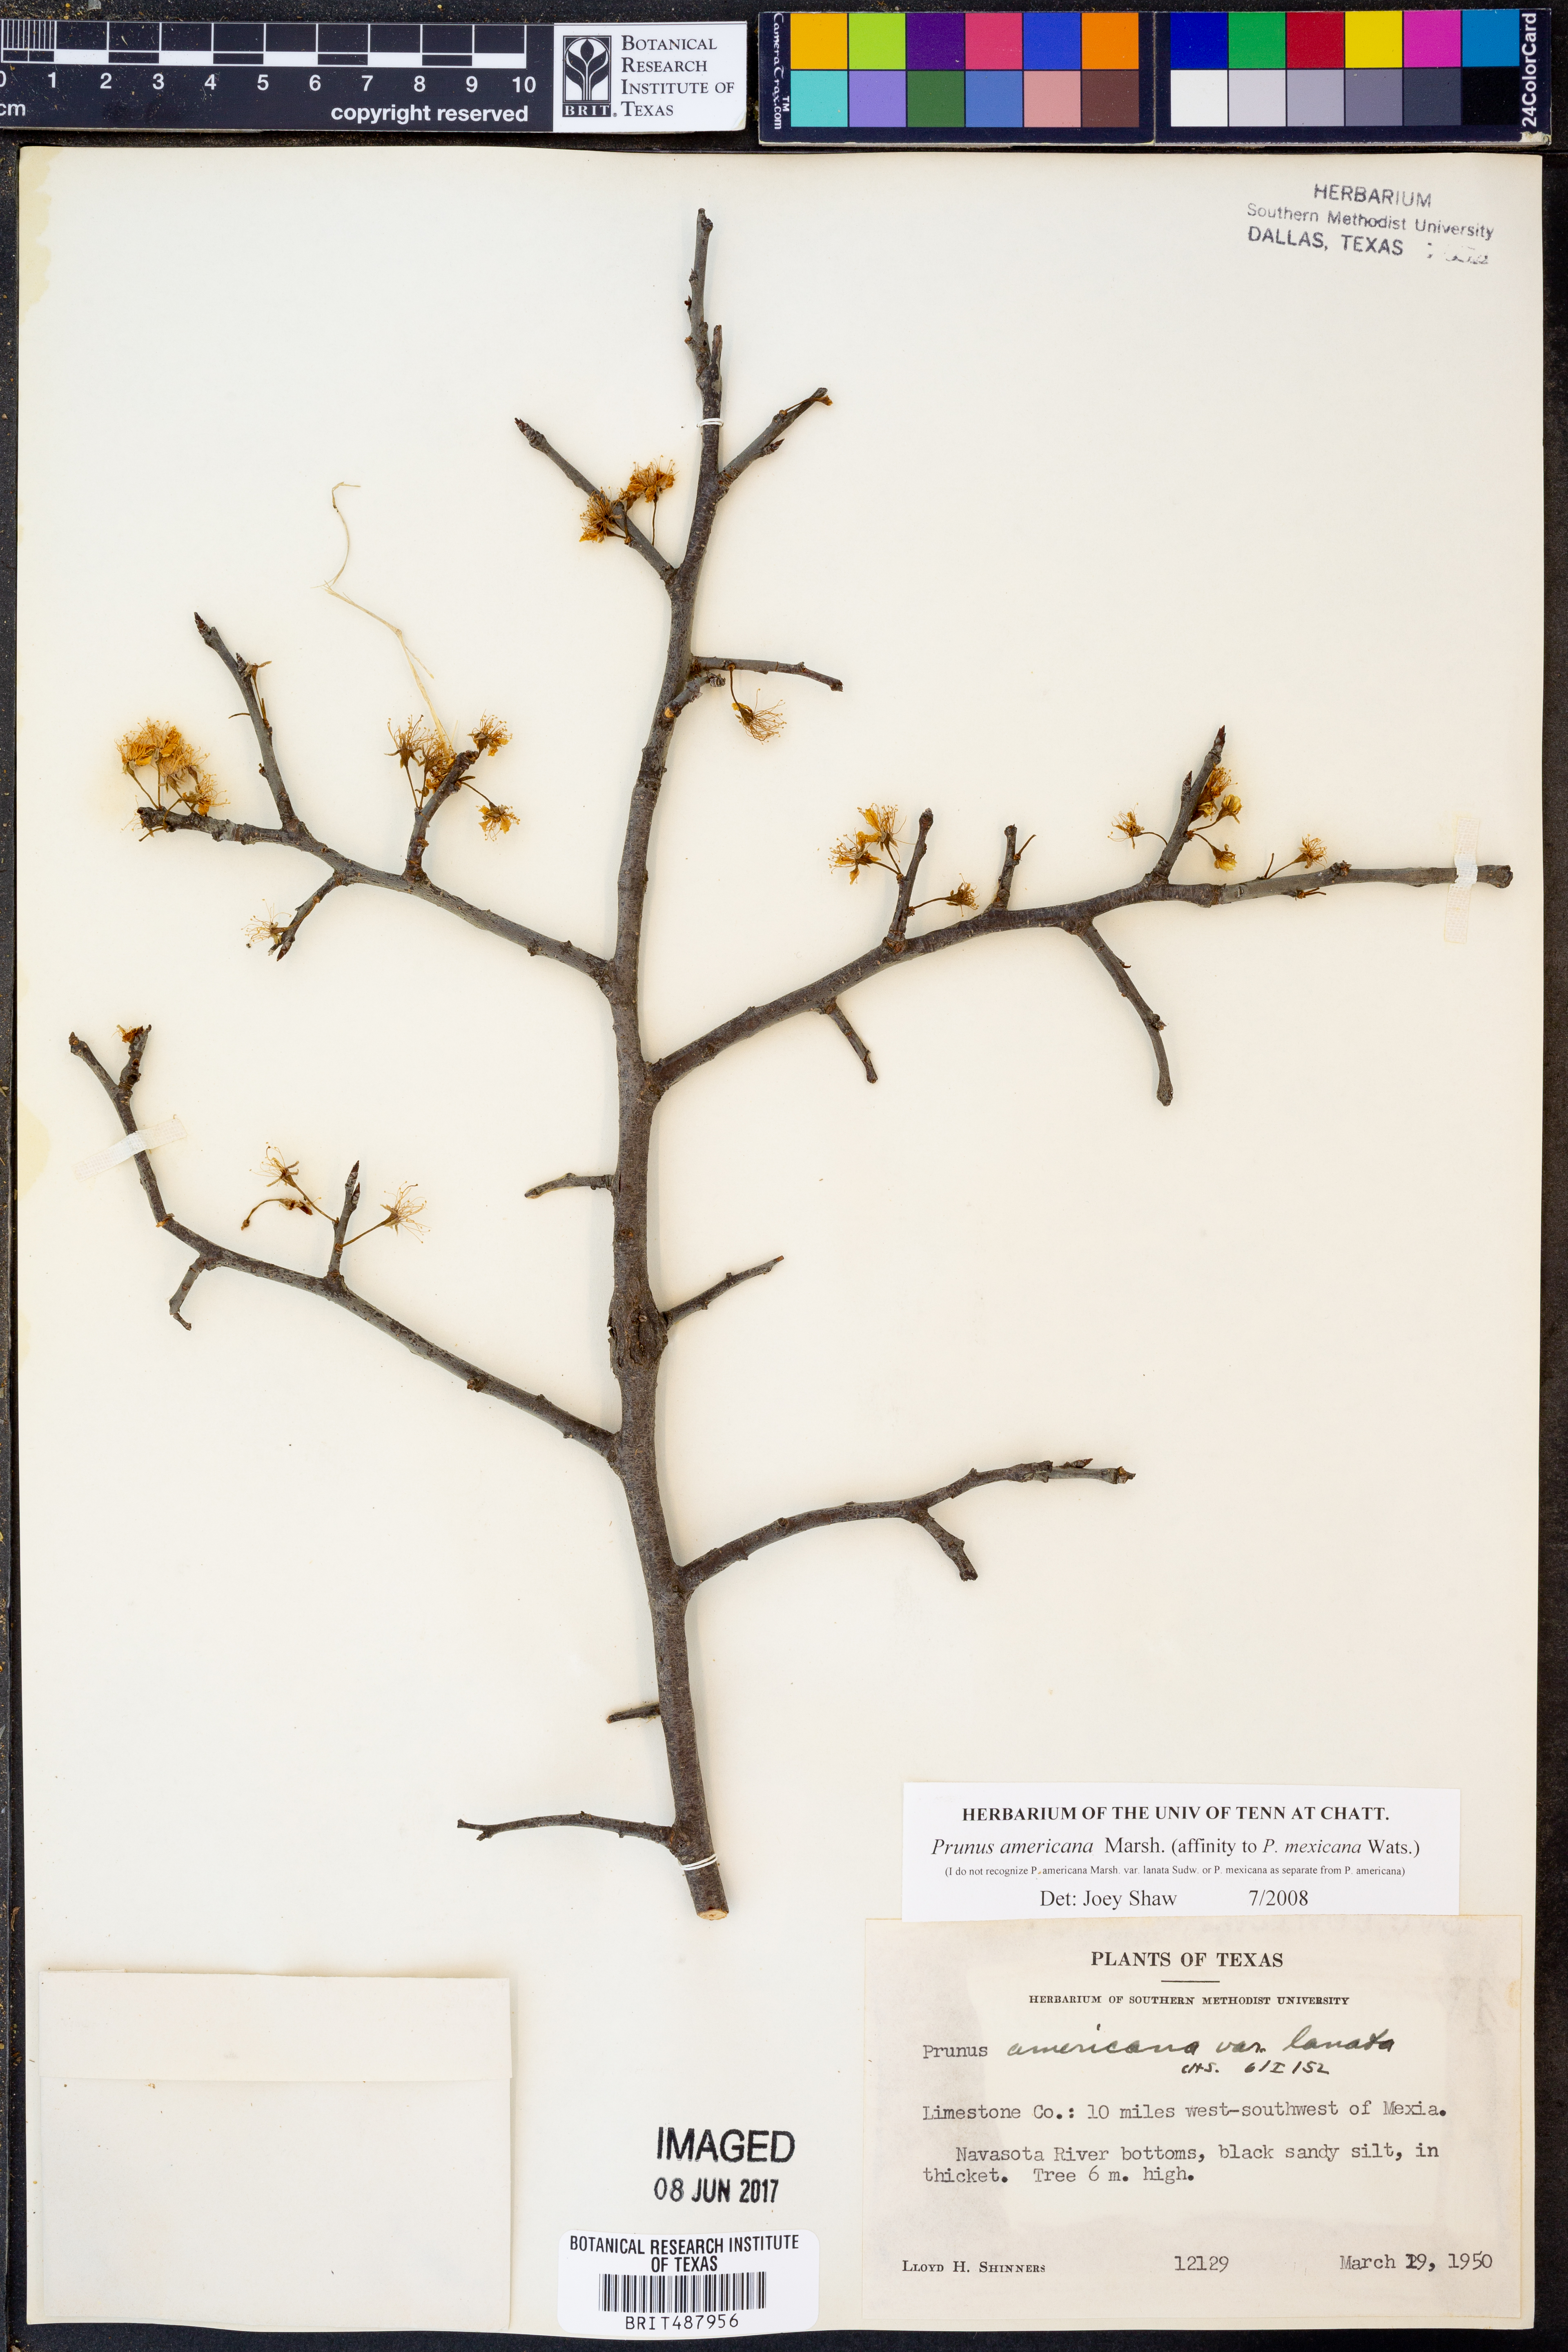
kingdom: Plantae
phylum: Tracheophyta
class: Magnoliopsida
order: Rosales
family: Rosaceae
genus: Prunus
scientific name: Prunus americana
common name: American plum
